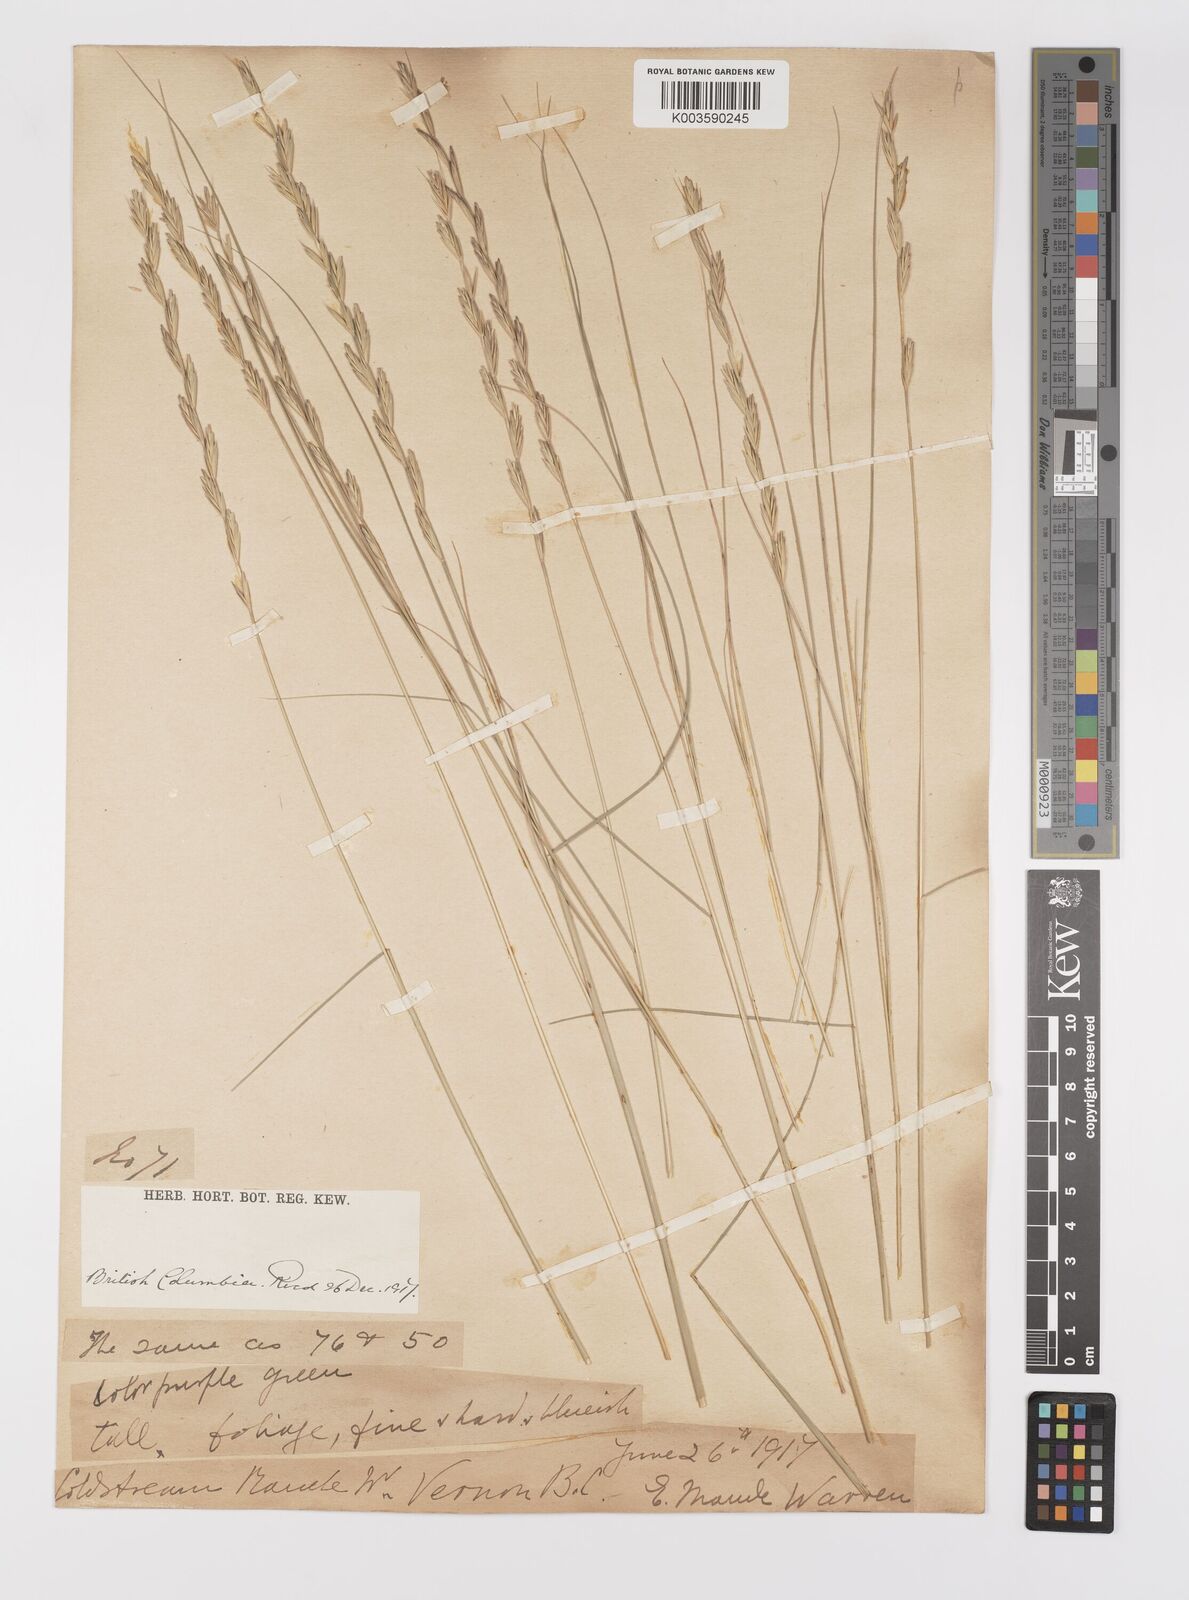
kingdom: Plantae
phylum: Tracheophyta
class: Liliopsida
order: Poales
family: Poaceae
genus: Elymus
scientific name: Elymus
